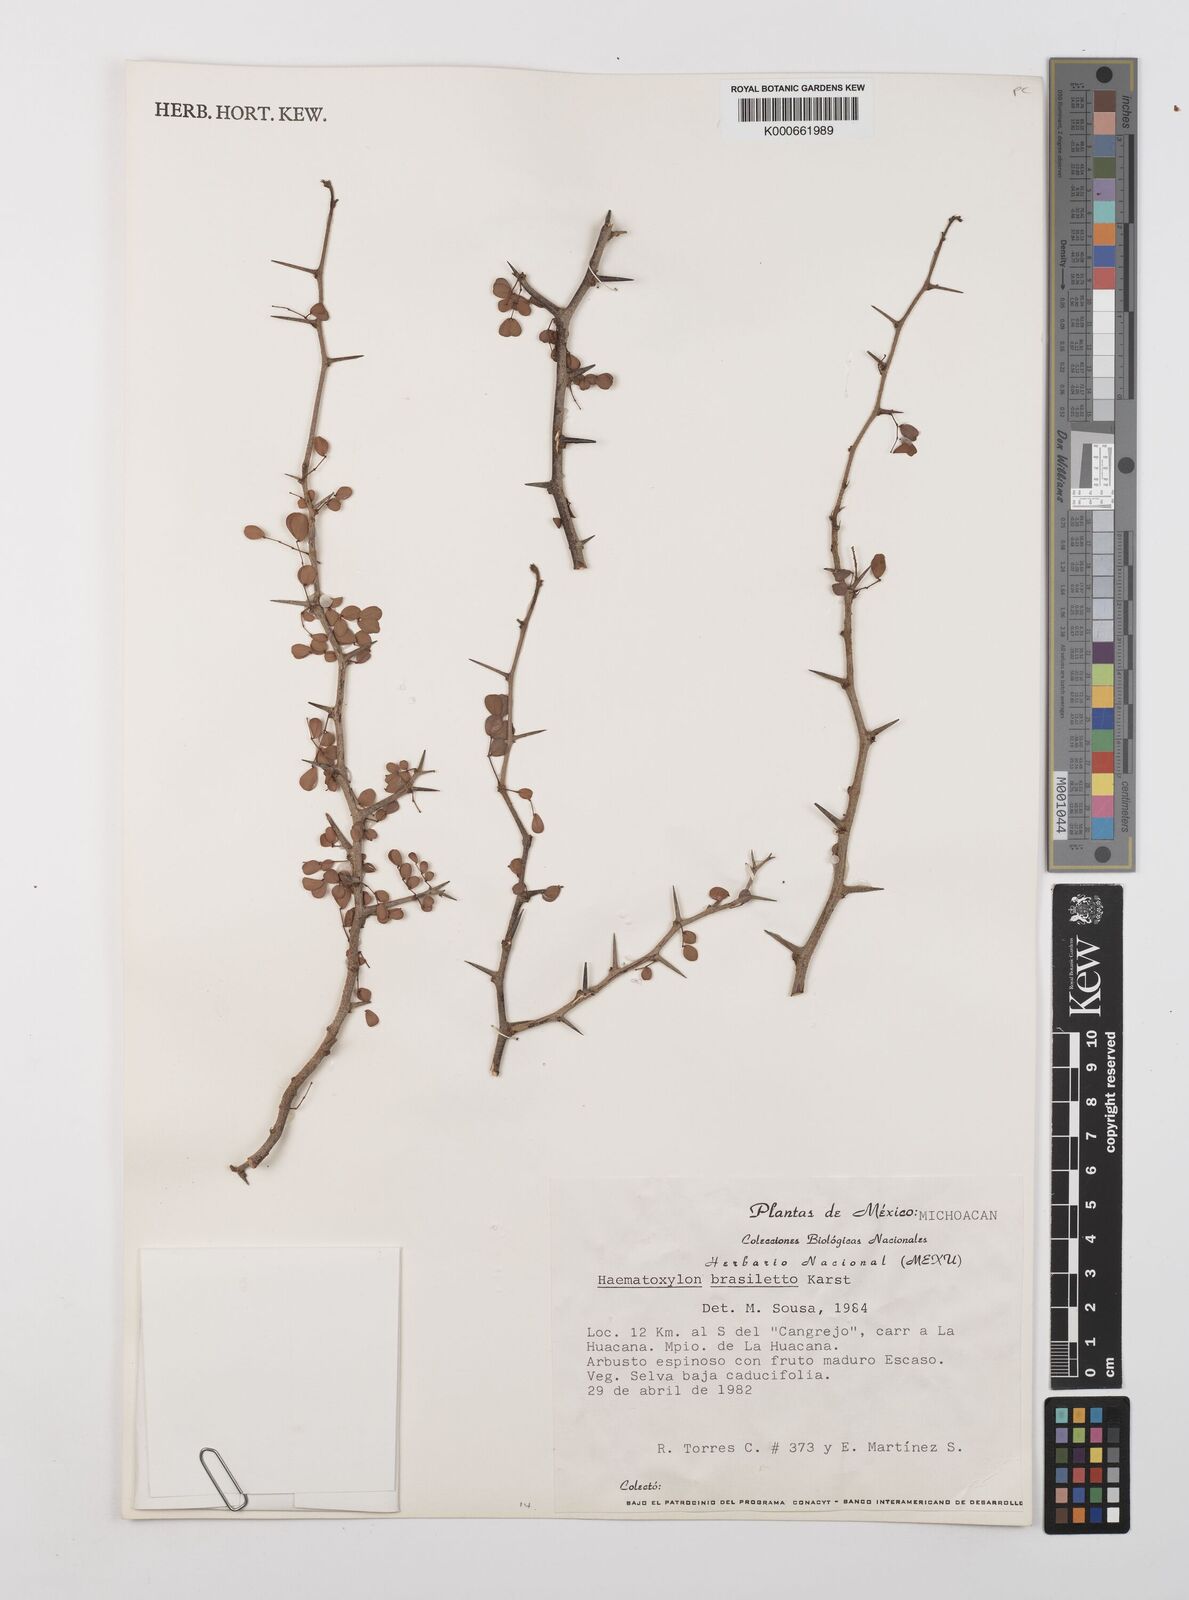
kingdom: Plantae
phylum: Tracheophyta
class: Magnoliopsida
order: Fabales
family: Fabaceae
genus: Haematoxylum
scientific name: Haematoxylum brasiletto
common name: Peachwood
